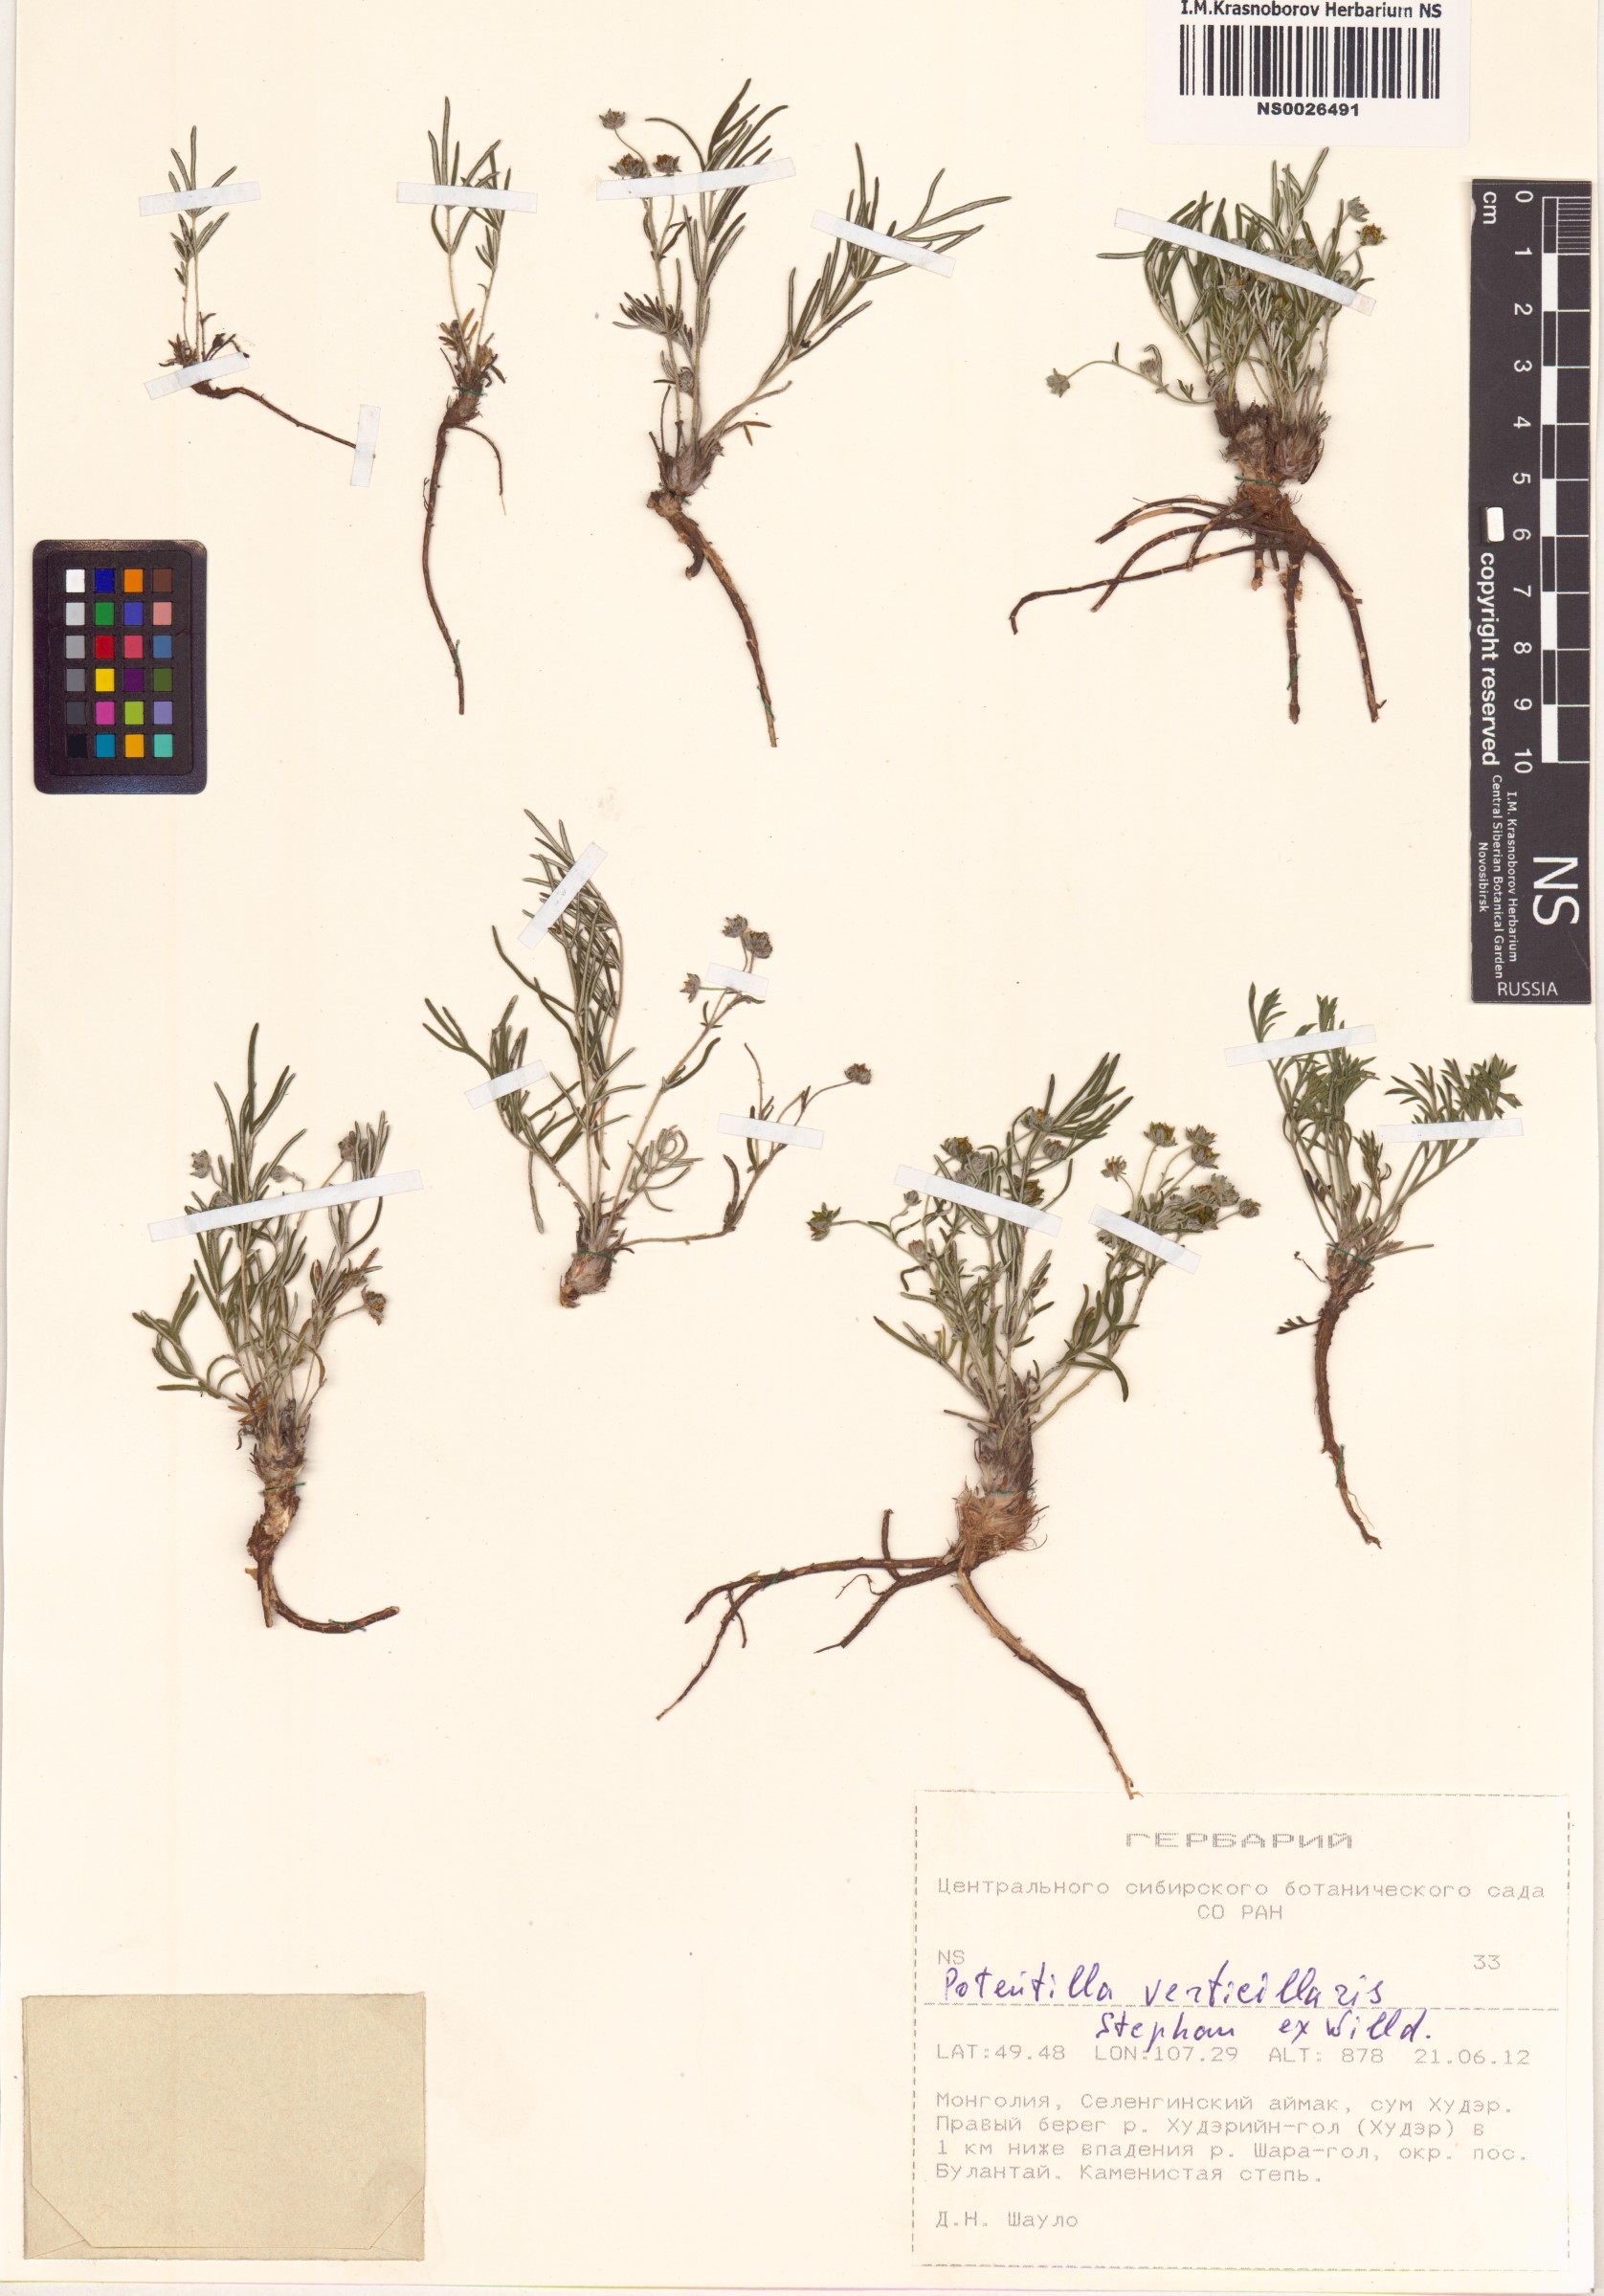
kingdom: Plantae
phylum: Tracheophyta
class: Magnoliopsida
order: Rosales
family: Rosaceae
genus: Potentilla
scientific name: Potentilla verticillaris
